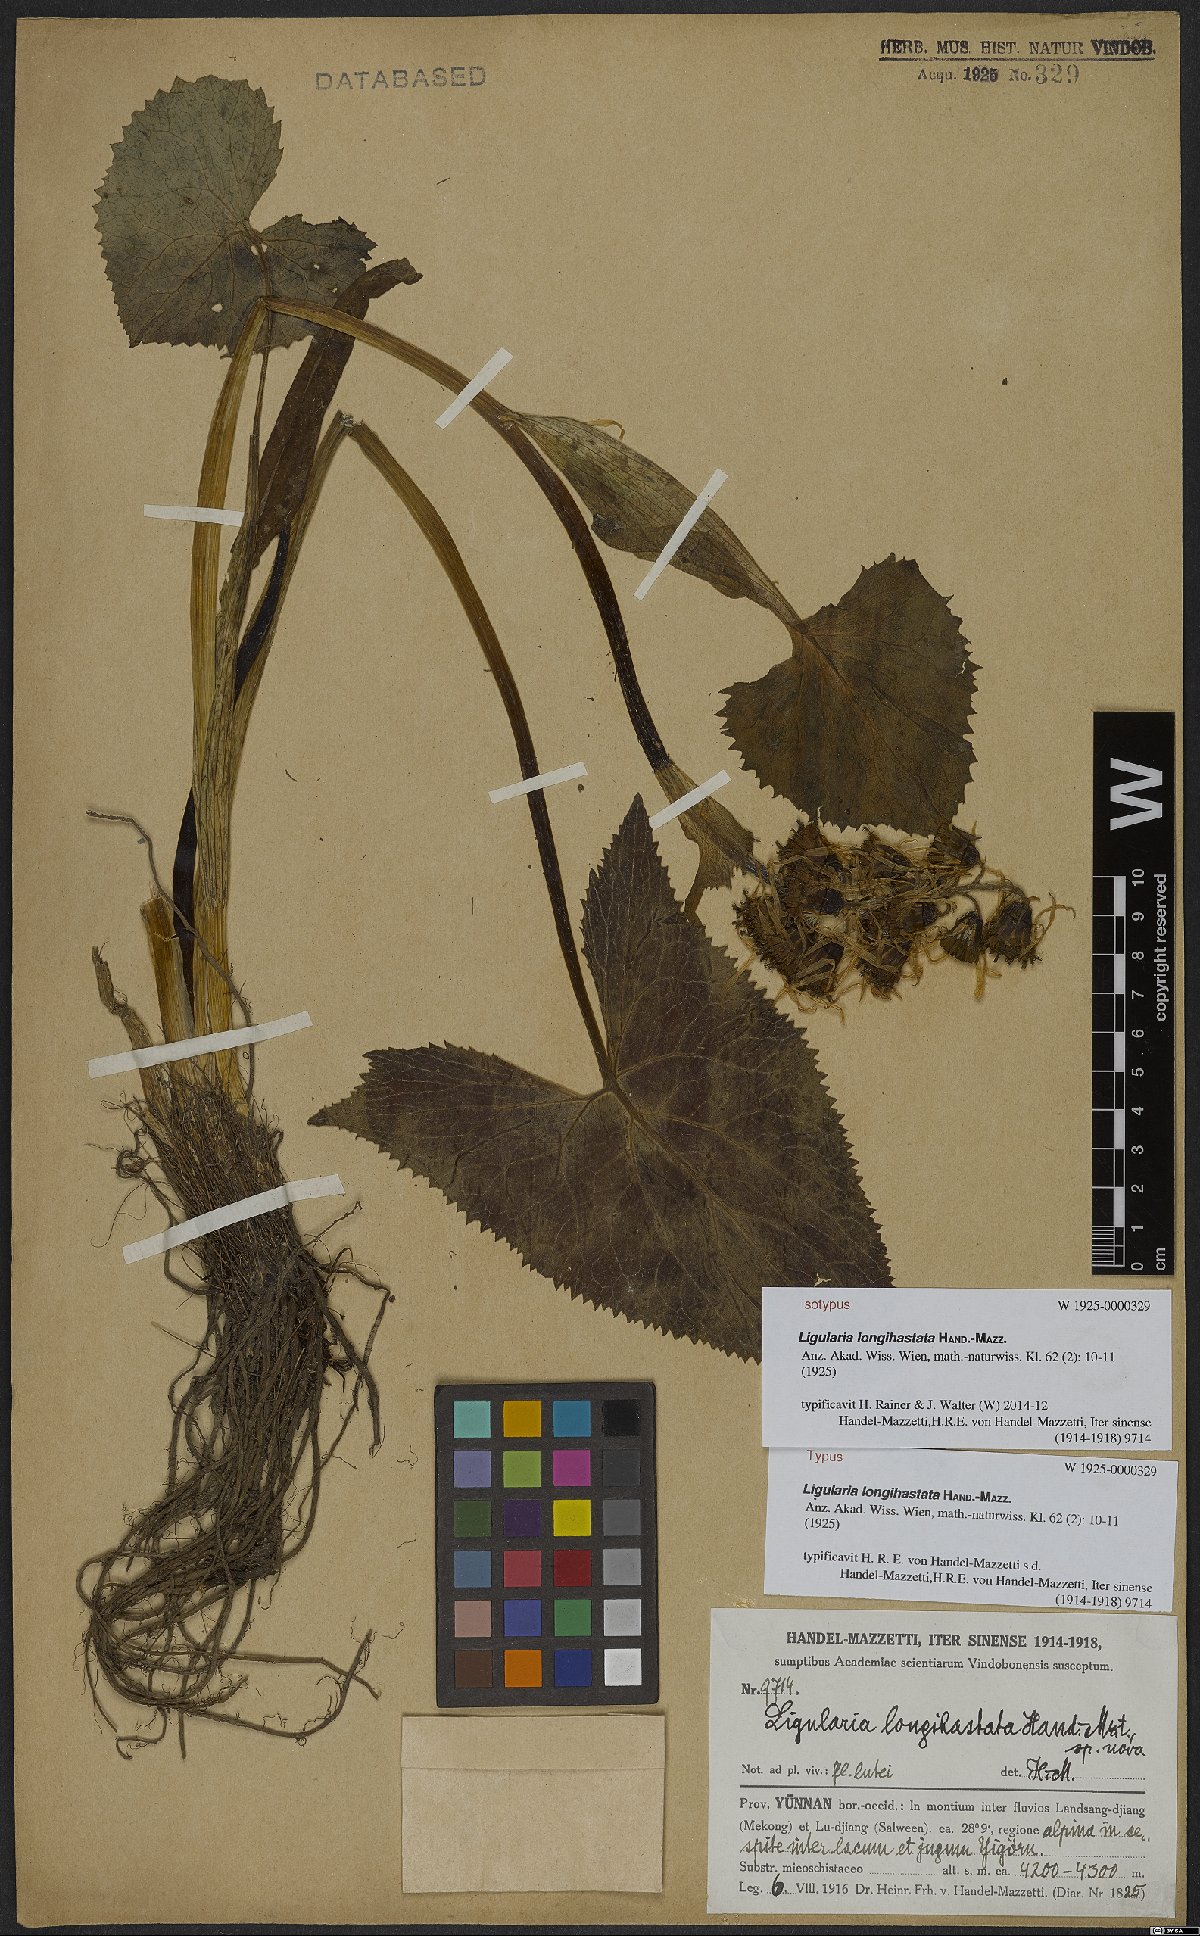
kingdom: Plantae
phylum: Tracheophyta
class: Magnoliopsida
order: Asterales
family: Asteraceae
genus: Ligularia
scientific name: Ligularia longihastata
